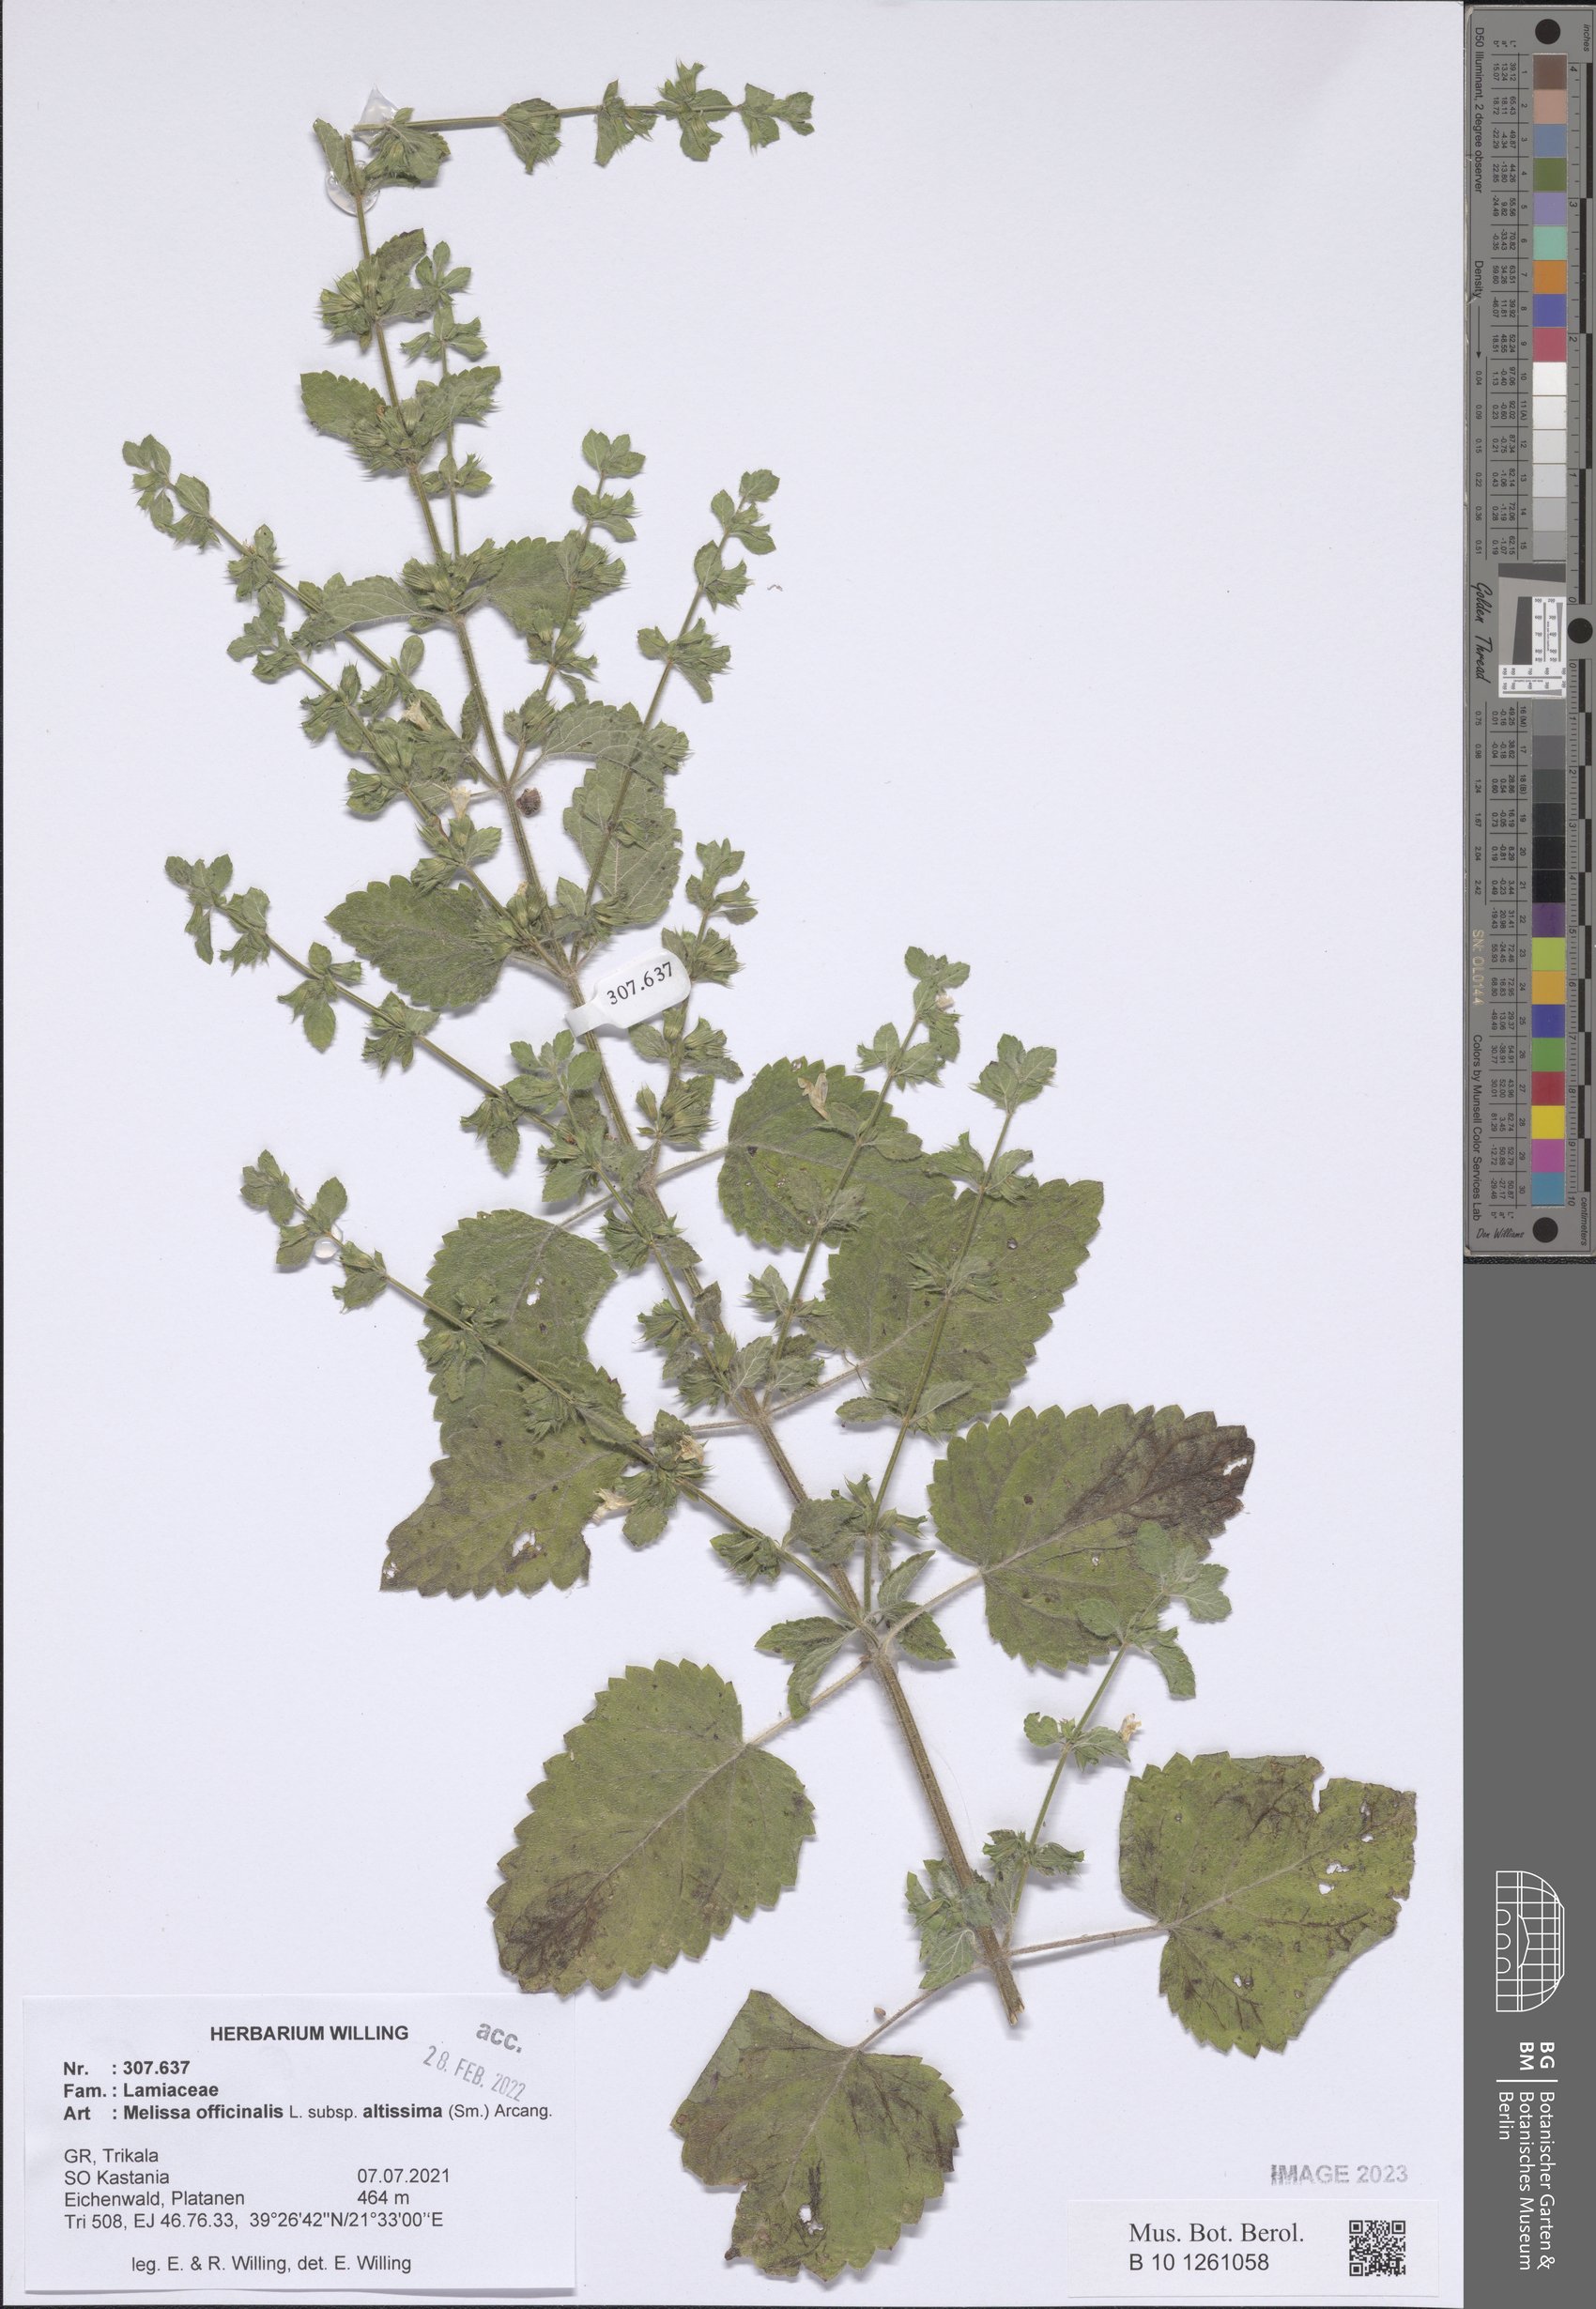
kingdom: Plantae
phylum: Tracheophyta
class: Magnoliopsida
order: Lamiales
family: Lamiaceae
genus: Melissa
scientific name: Melissa officinalis
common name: Balm
